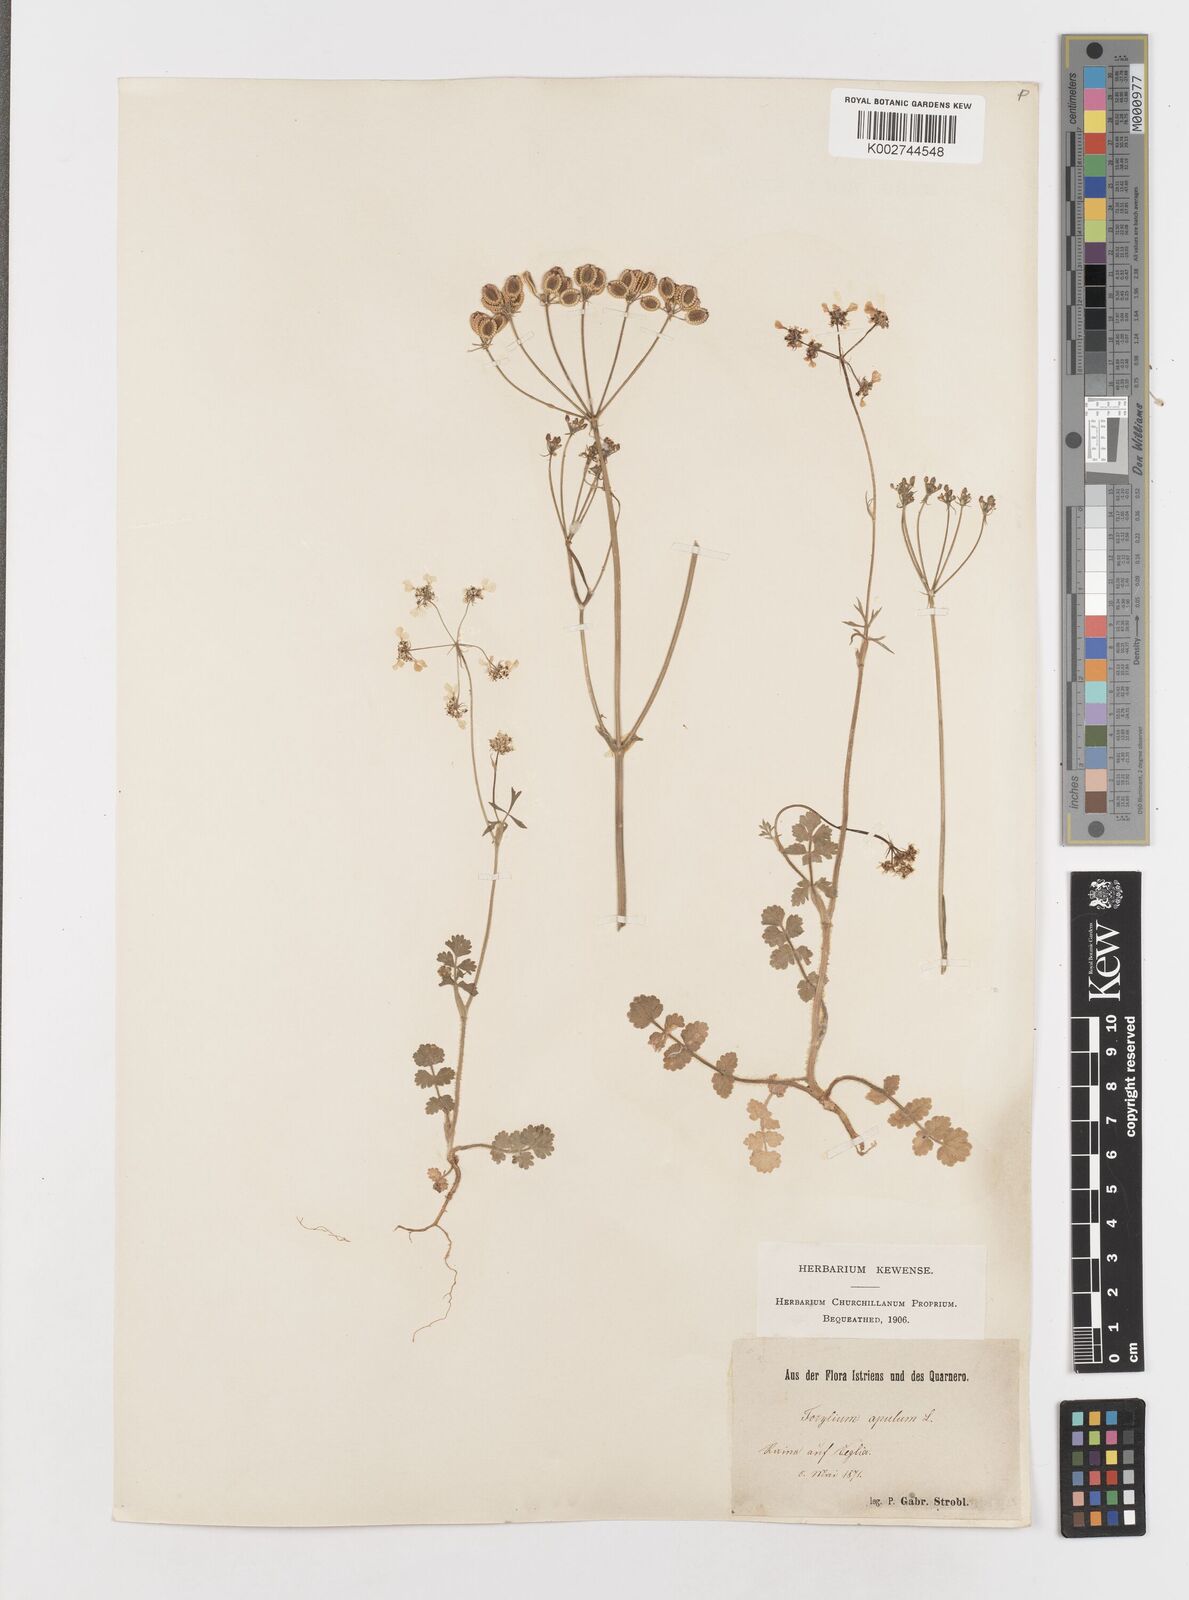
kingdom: Plantae
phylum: Tracheophyta
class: Magnoliopsida
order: Apiales
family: Apiaceae
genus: Tordylium
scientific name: Tordylium apulum
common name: Mediterranean hartwort
